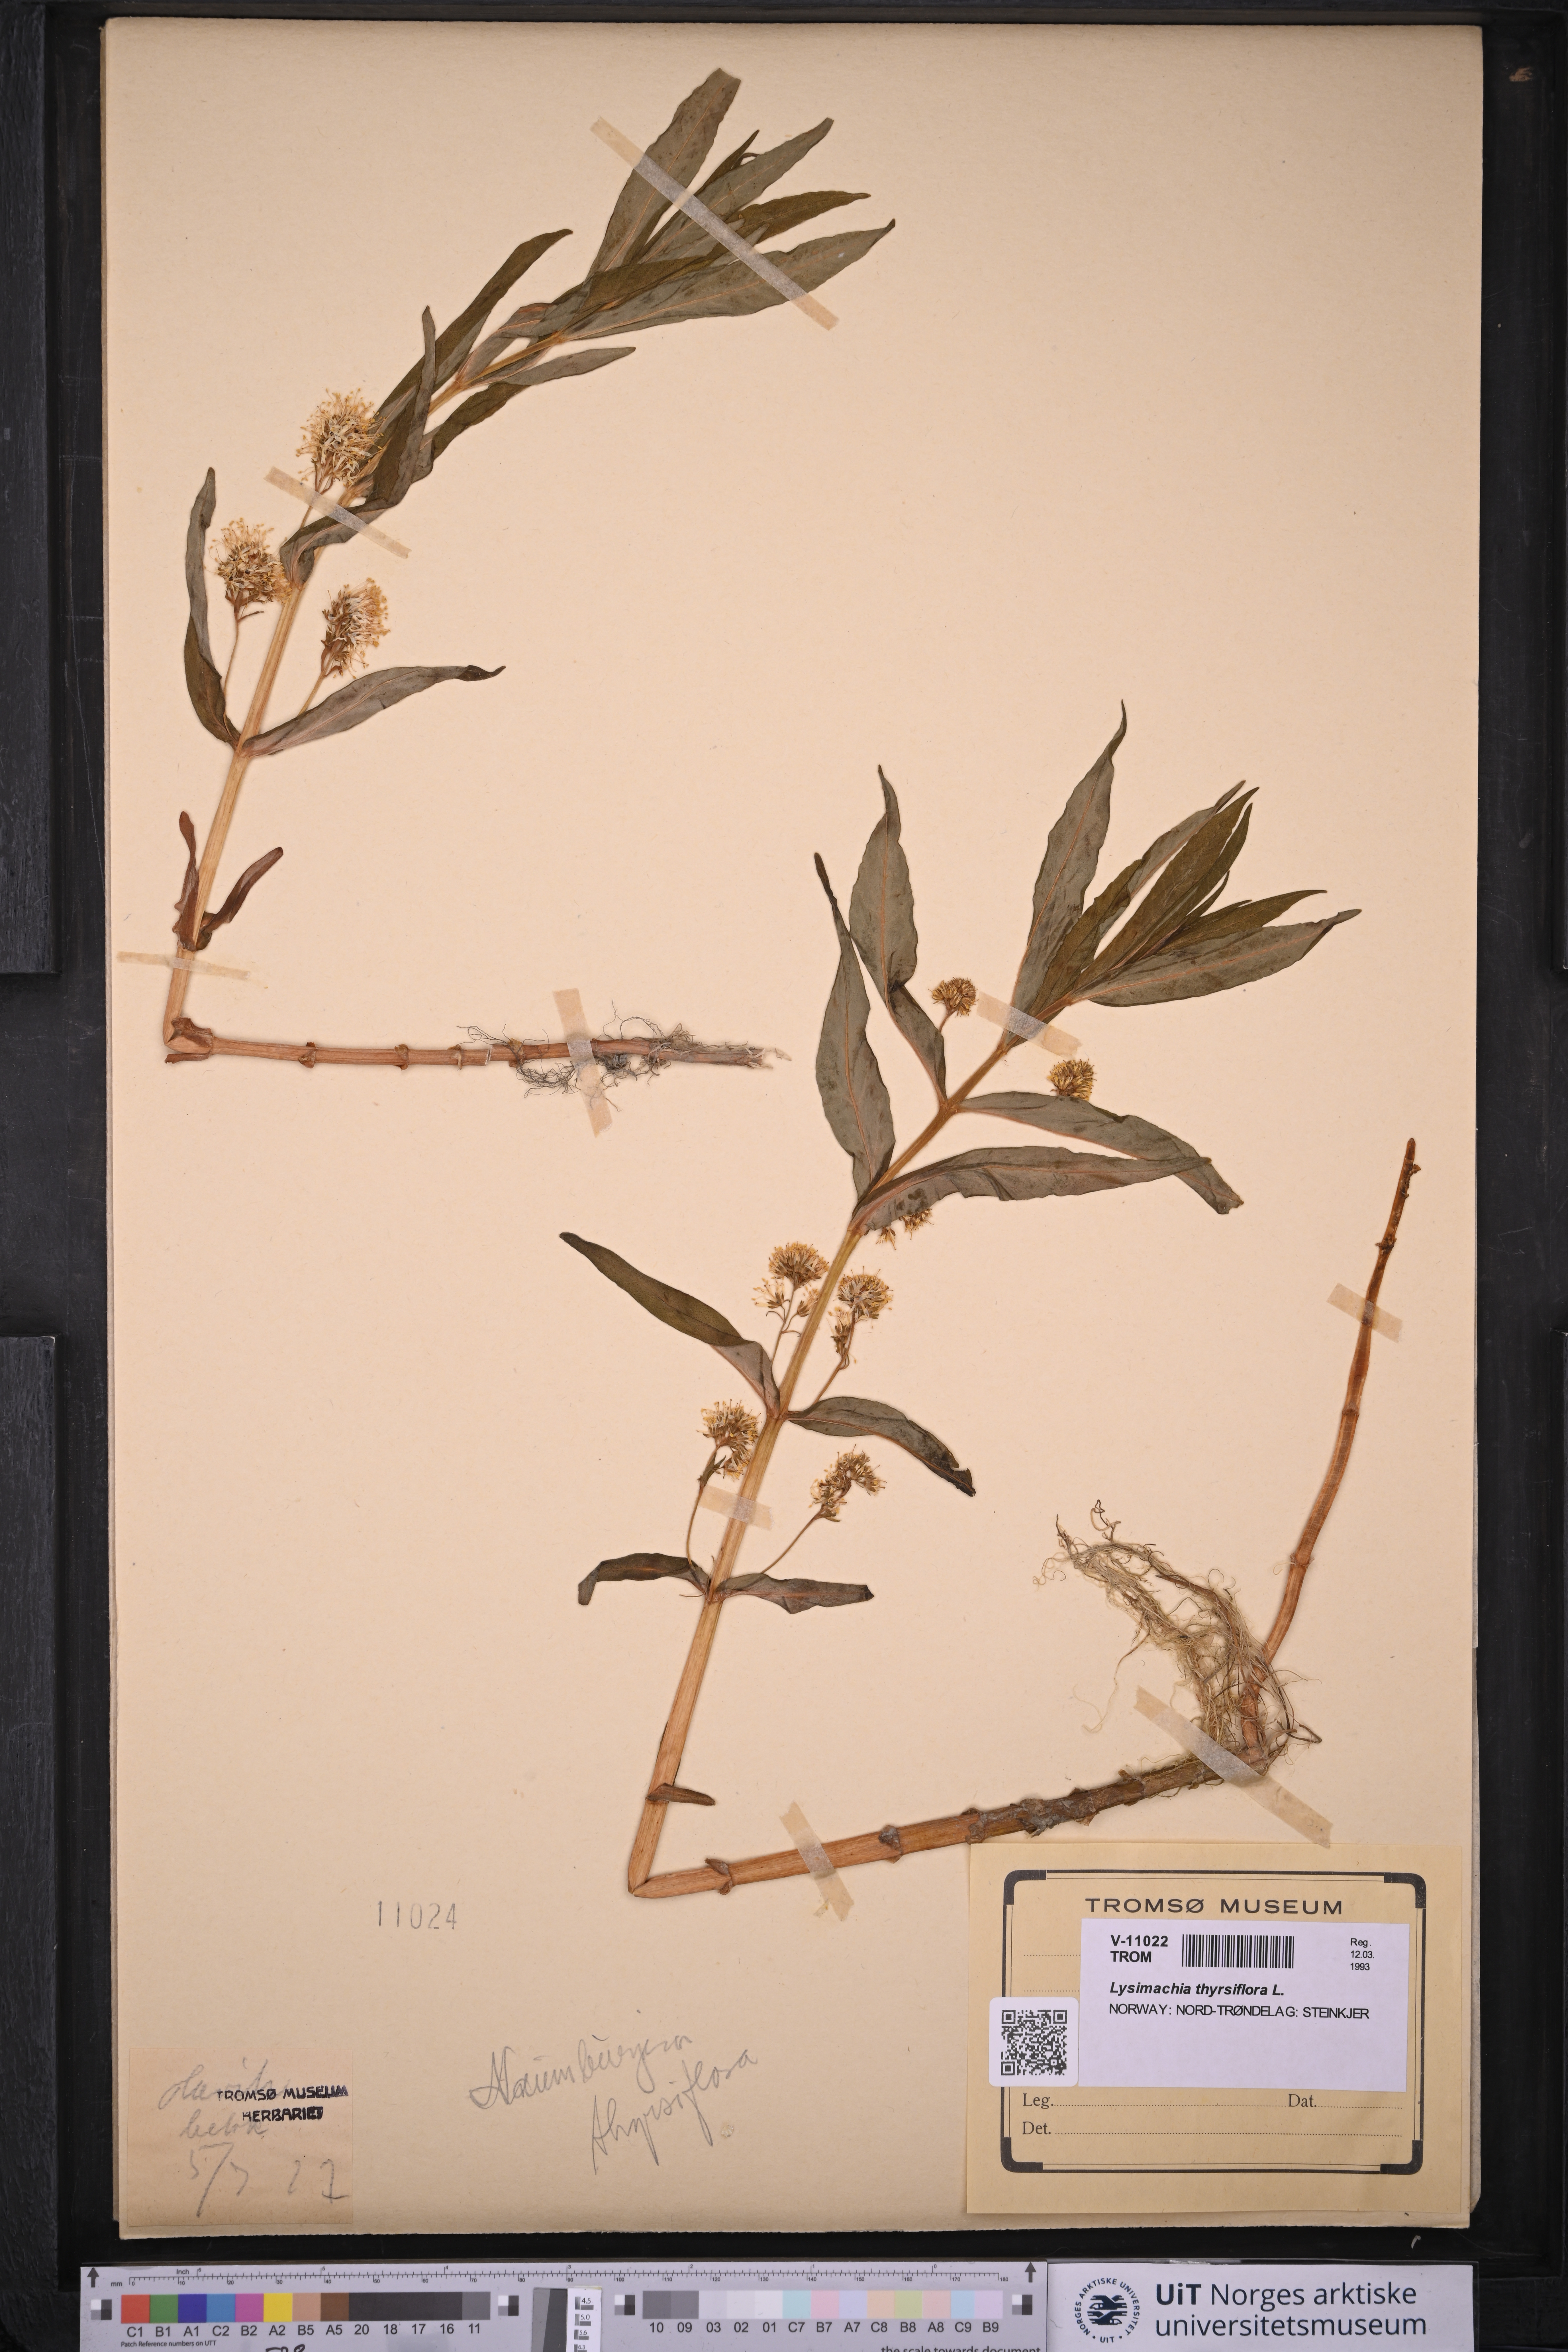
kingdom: Plantae
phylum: Tracheophyta
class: Magnoliopsida
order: Ericales
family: Primulaceae
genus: Lysimachia
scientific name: Lysimachia thyrsiflora
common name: Tufted loosestrife
